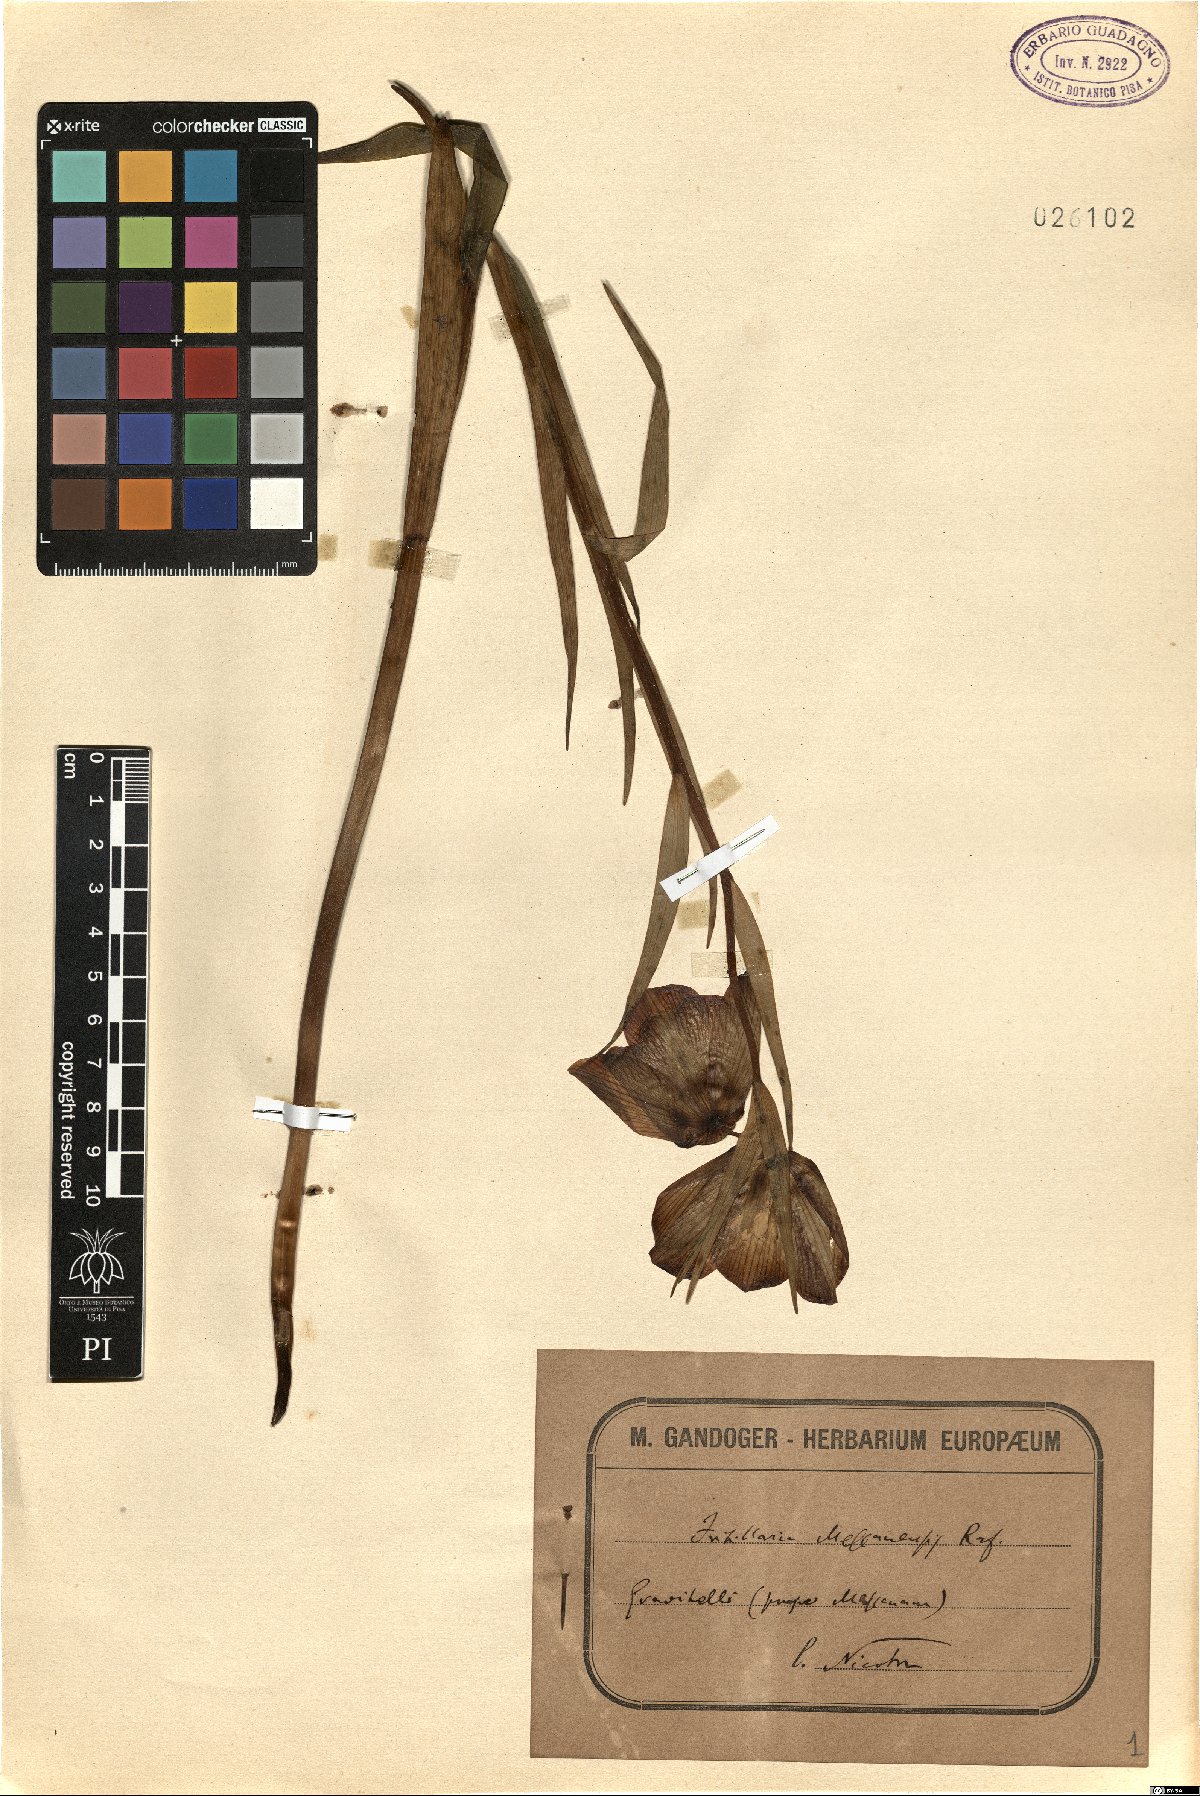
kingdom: Plantae
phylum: Tracheophyta
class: Liliopsida
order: Liliales
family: Liliaceae
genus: Fritillaria
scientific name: Fritillaria messanensis
